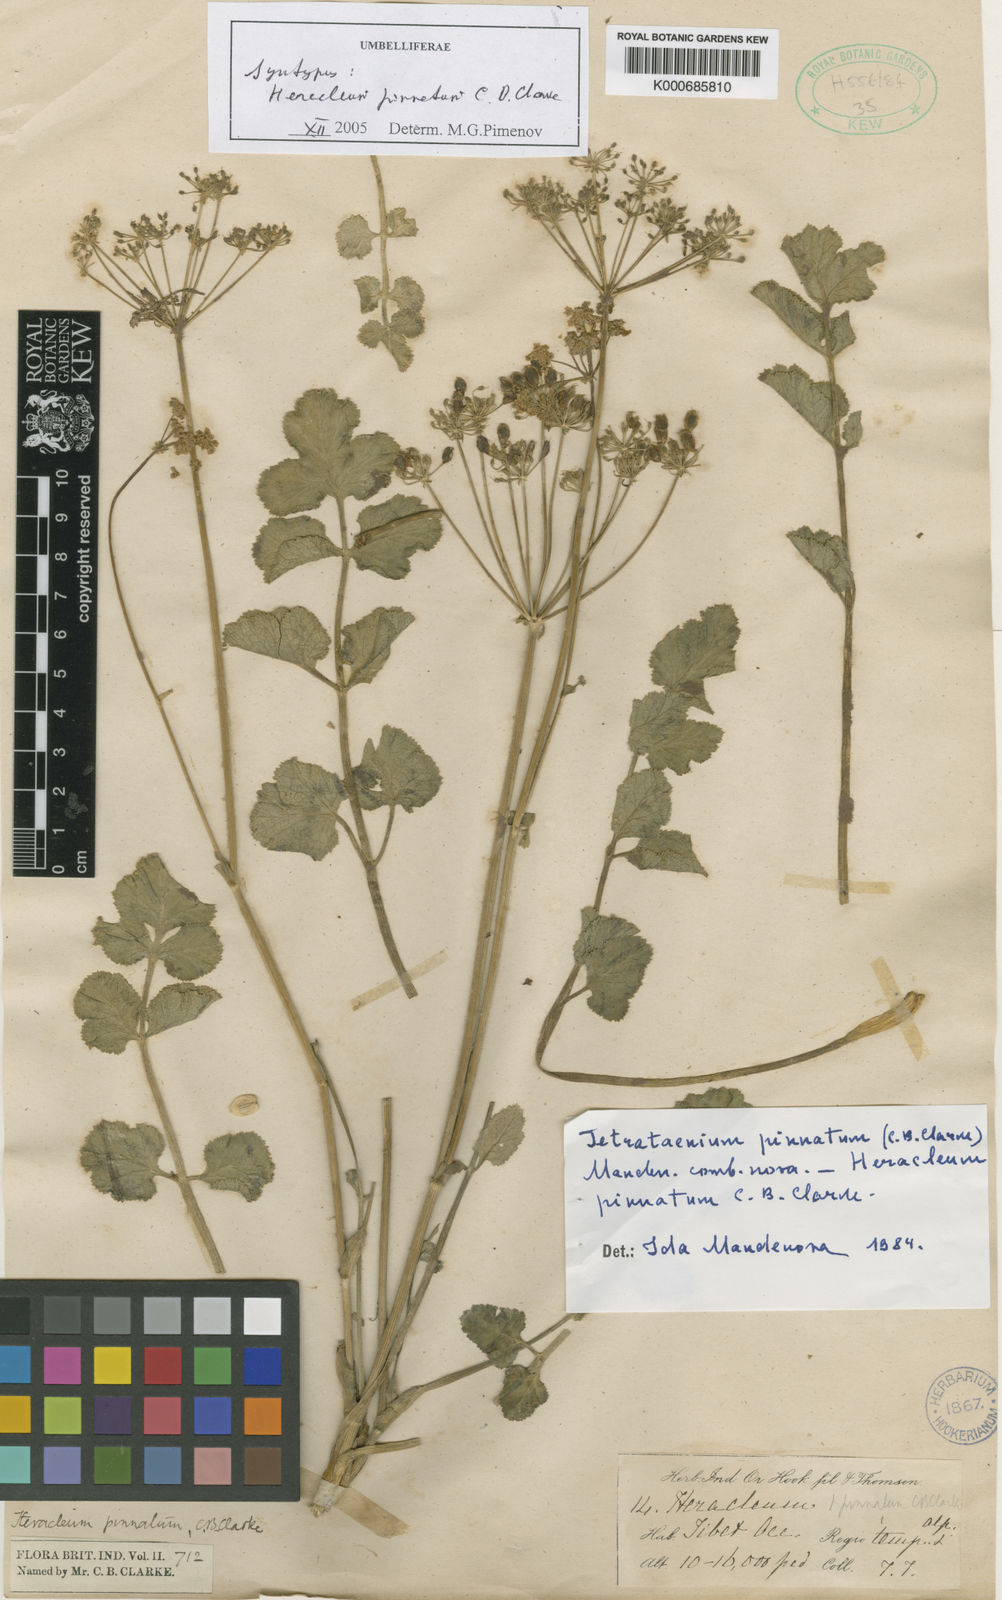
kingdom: Plantae
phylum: Tracheophyta
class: Magnoliopsida
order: Apiales
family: Apiaceae
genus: Tetrataenium
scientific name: Tetrataenium pinnatum
